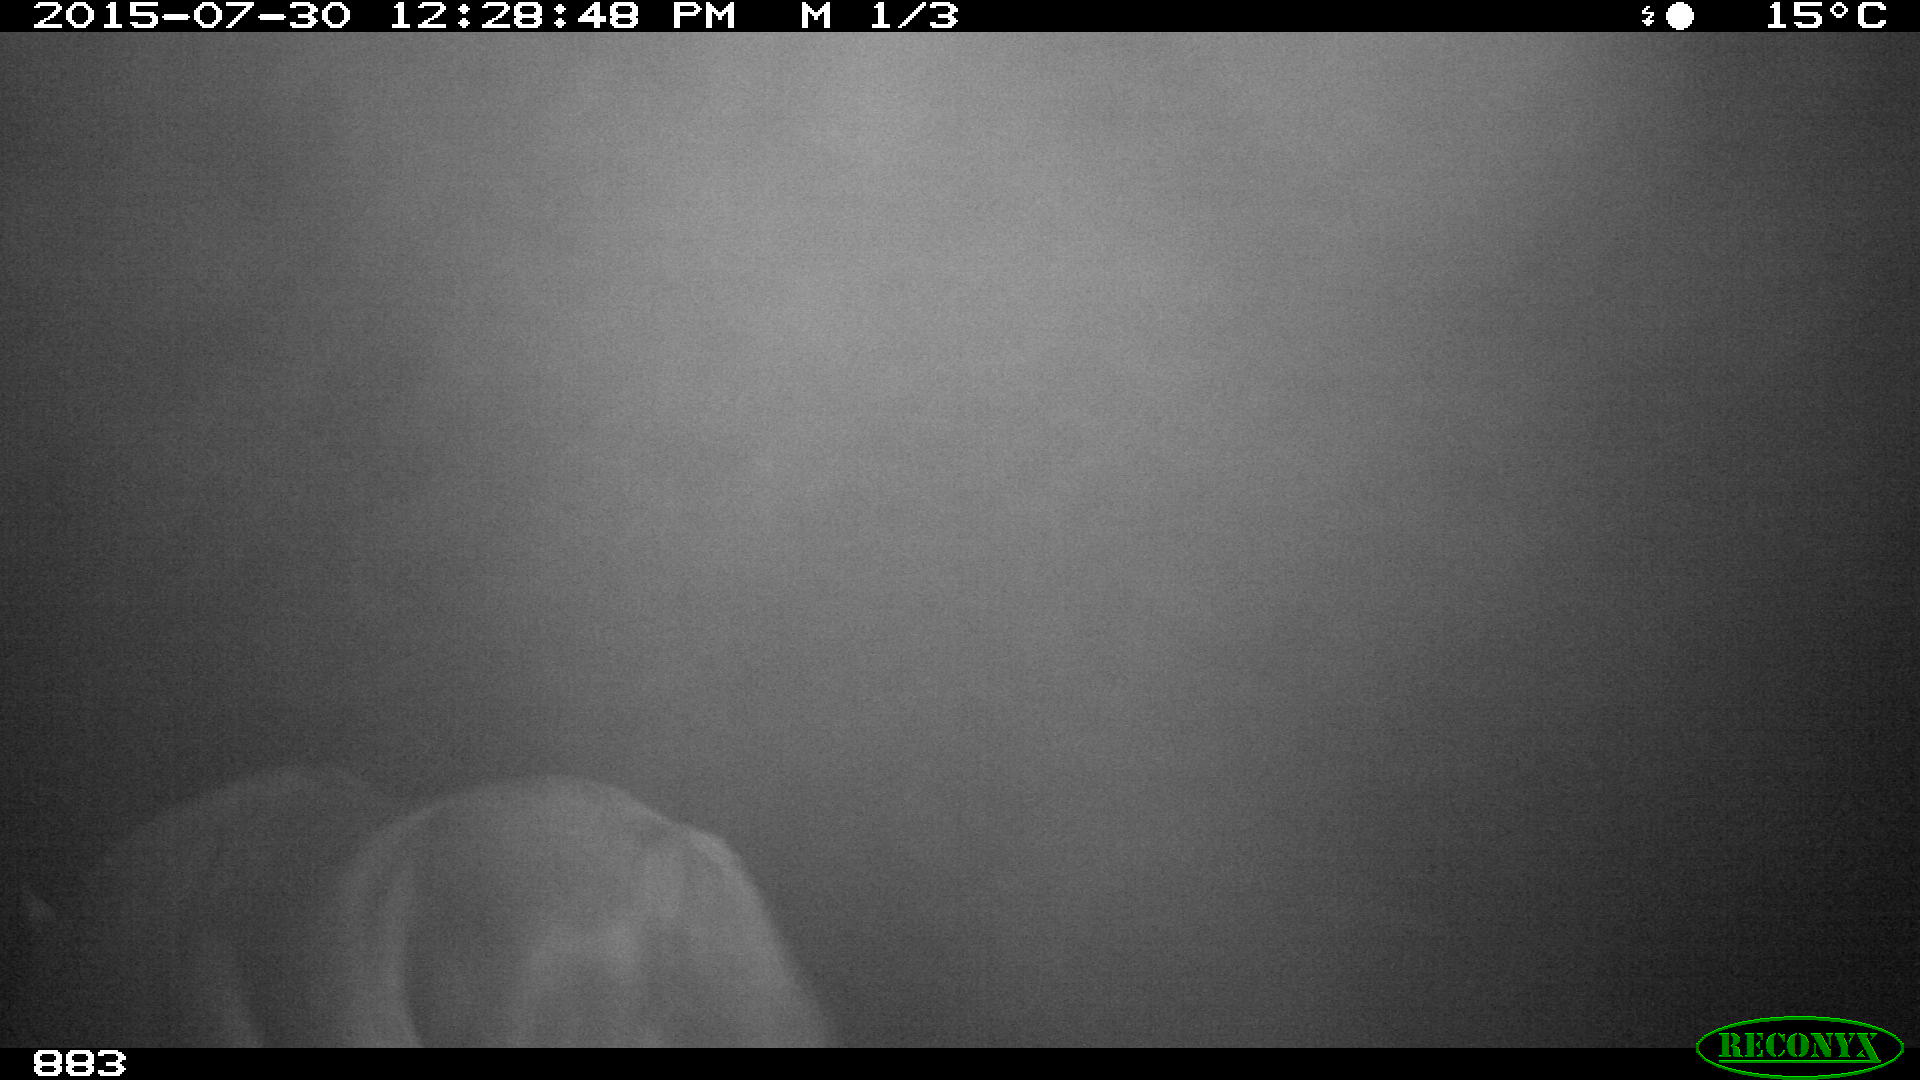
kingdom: Animalia
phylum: Chordata
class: Mammalia
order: Perissodactyla
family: Equidae
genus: Equus
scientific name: Equus caballus
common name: Horse
